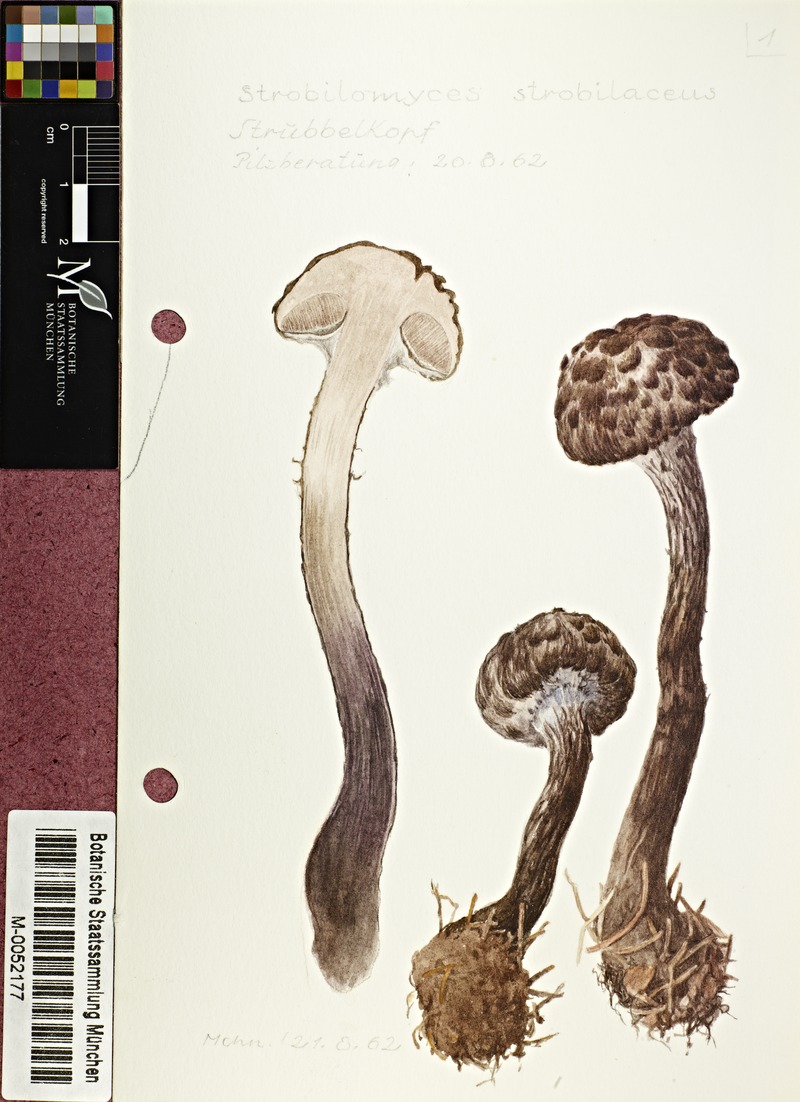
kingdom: Fungi
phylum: Basidiomycota
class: Agaricomycetes
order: Boletales
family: Boletaceae
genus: Strobilomyces
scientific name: Strobilomyces strobilaceus
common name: Old man of the woods
